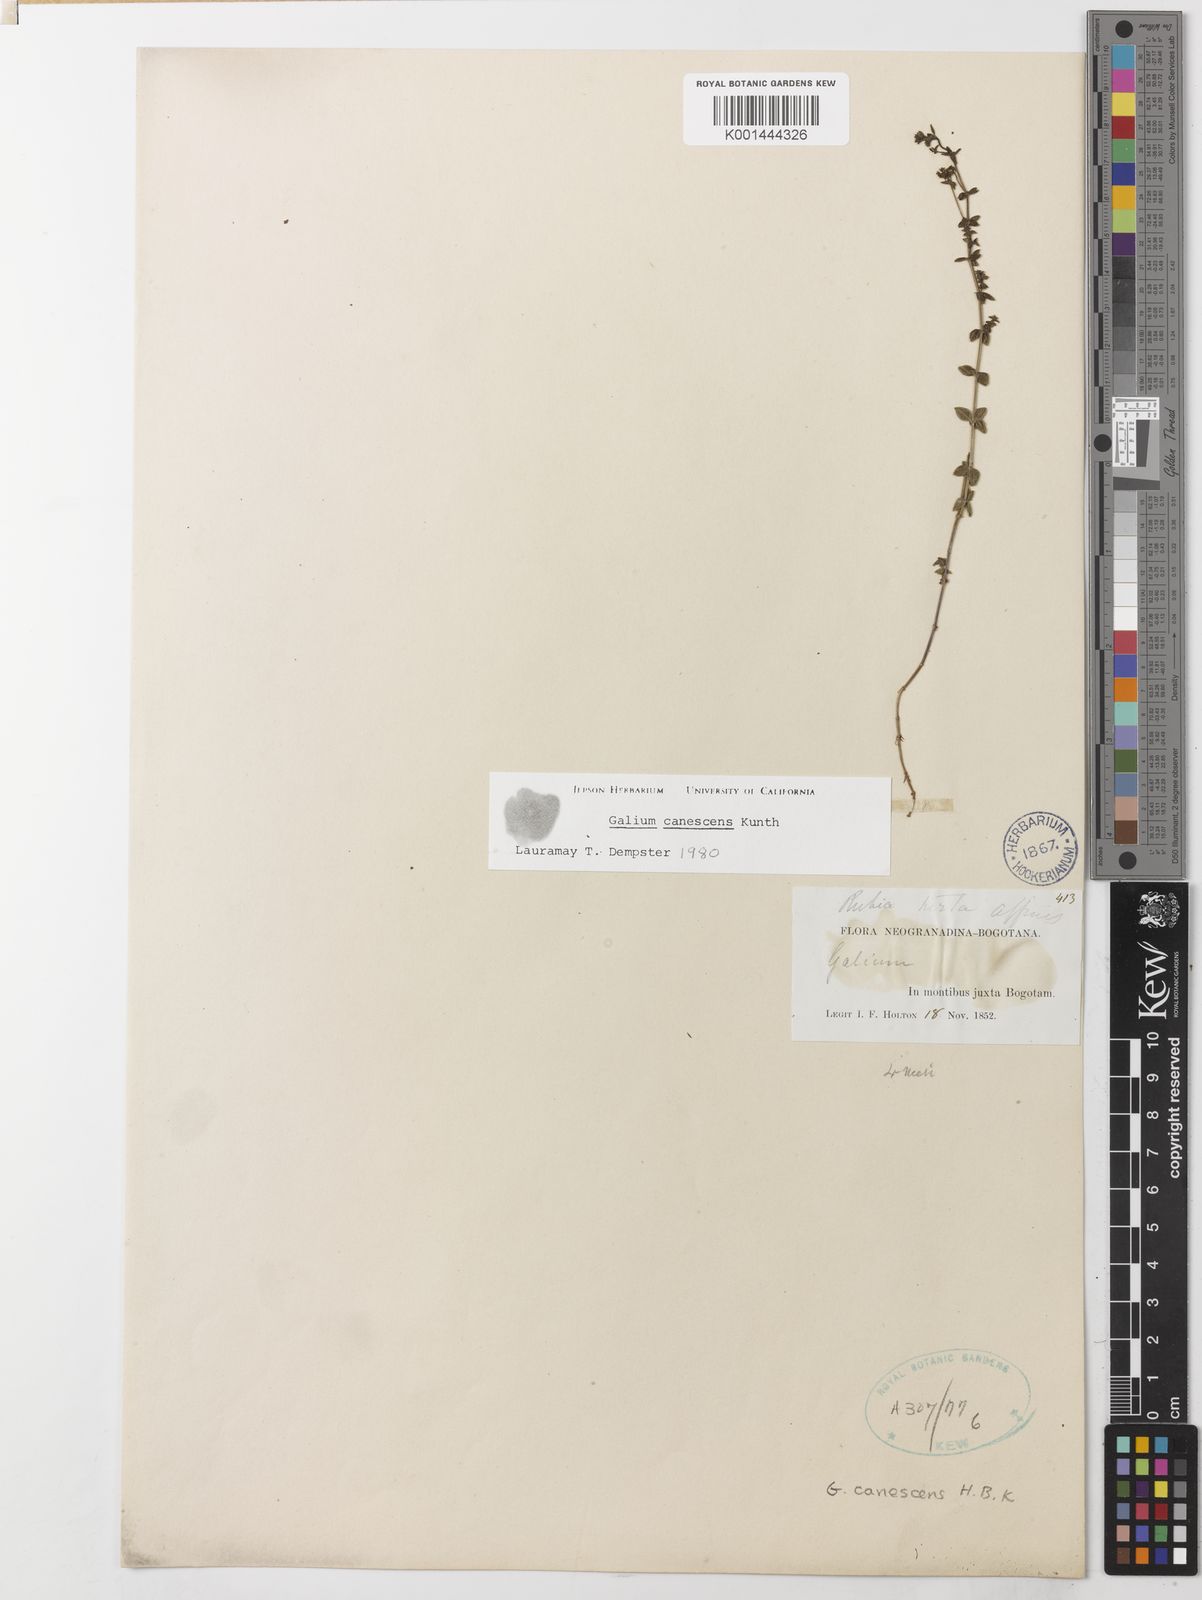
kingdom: Plantae
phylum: Tracheophyta
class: Magnoliopsida
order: Gentianales
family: Rubiaceae
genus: Galium
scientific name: Galium canescens
